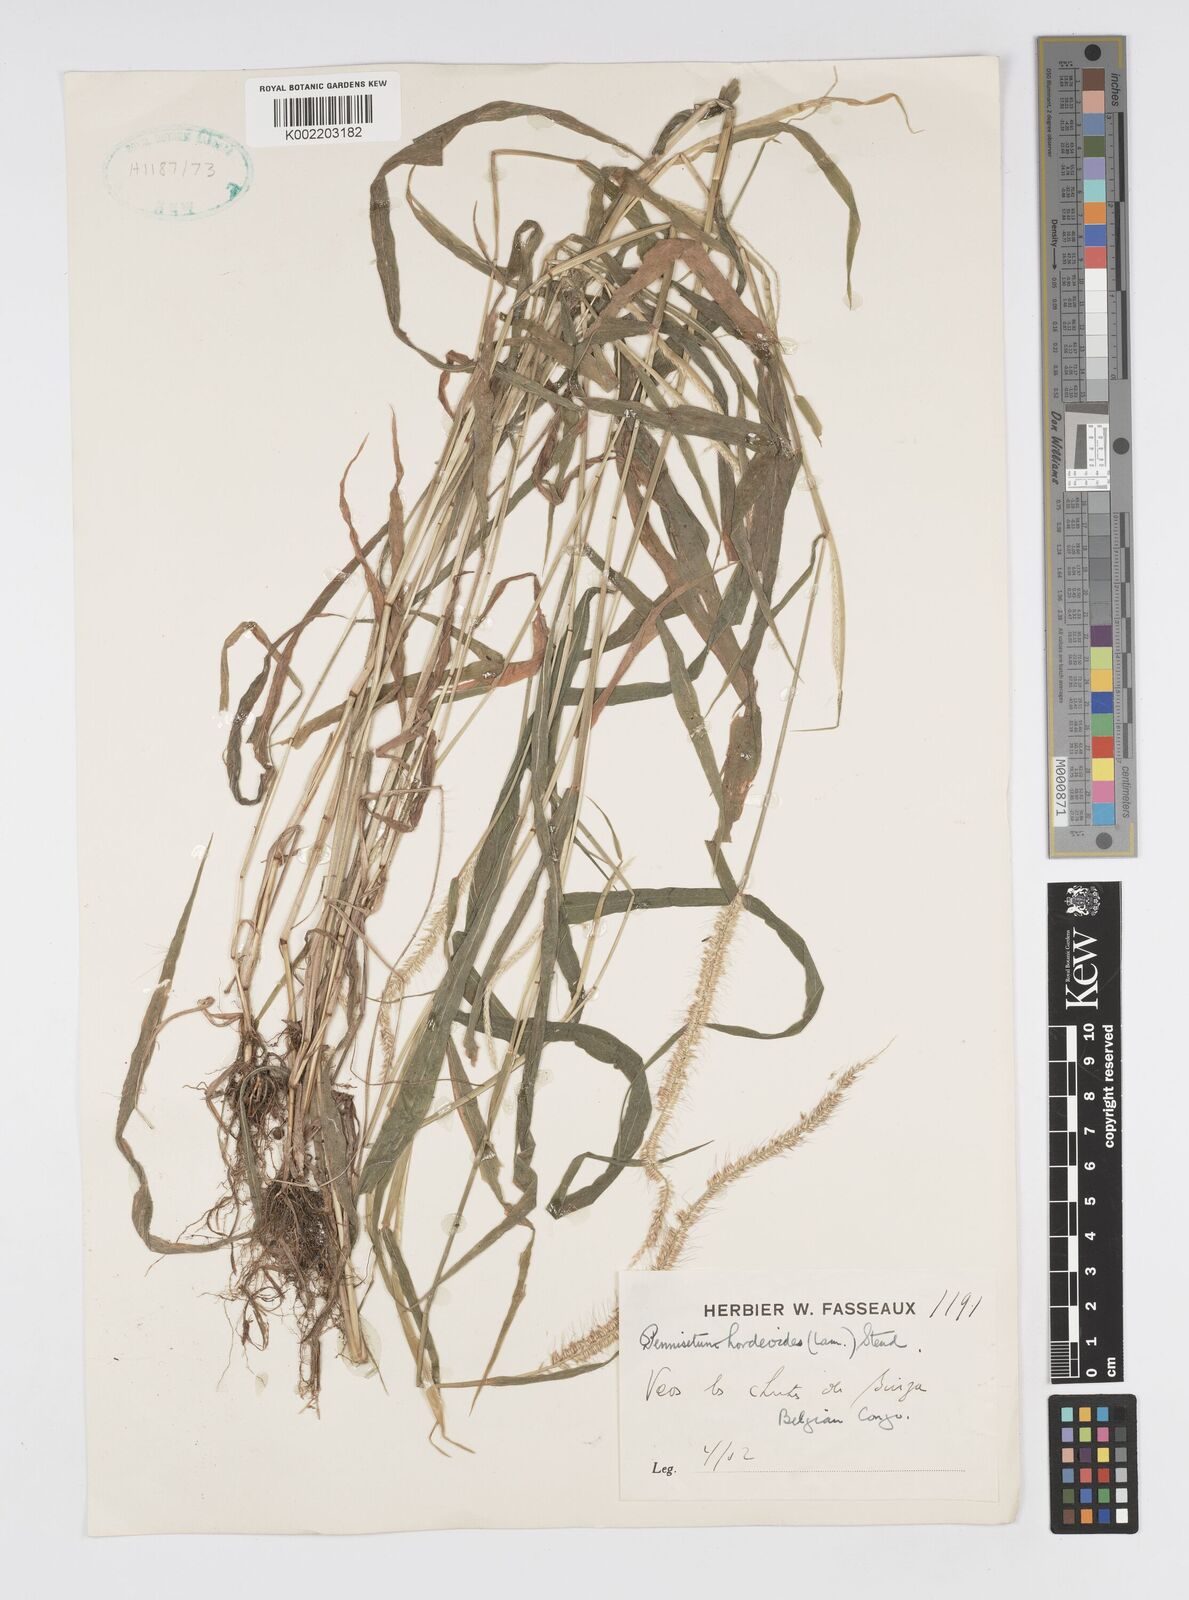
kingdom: Plantae
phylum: Tracheophyta
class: Liliopsida
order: Poales
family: Poaceae
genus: Cenchrus
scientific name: Cenchrus hordeoides
